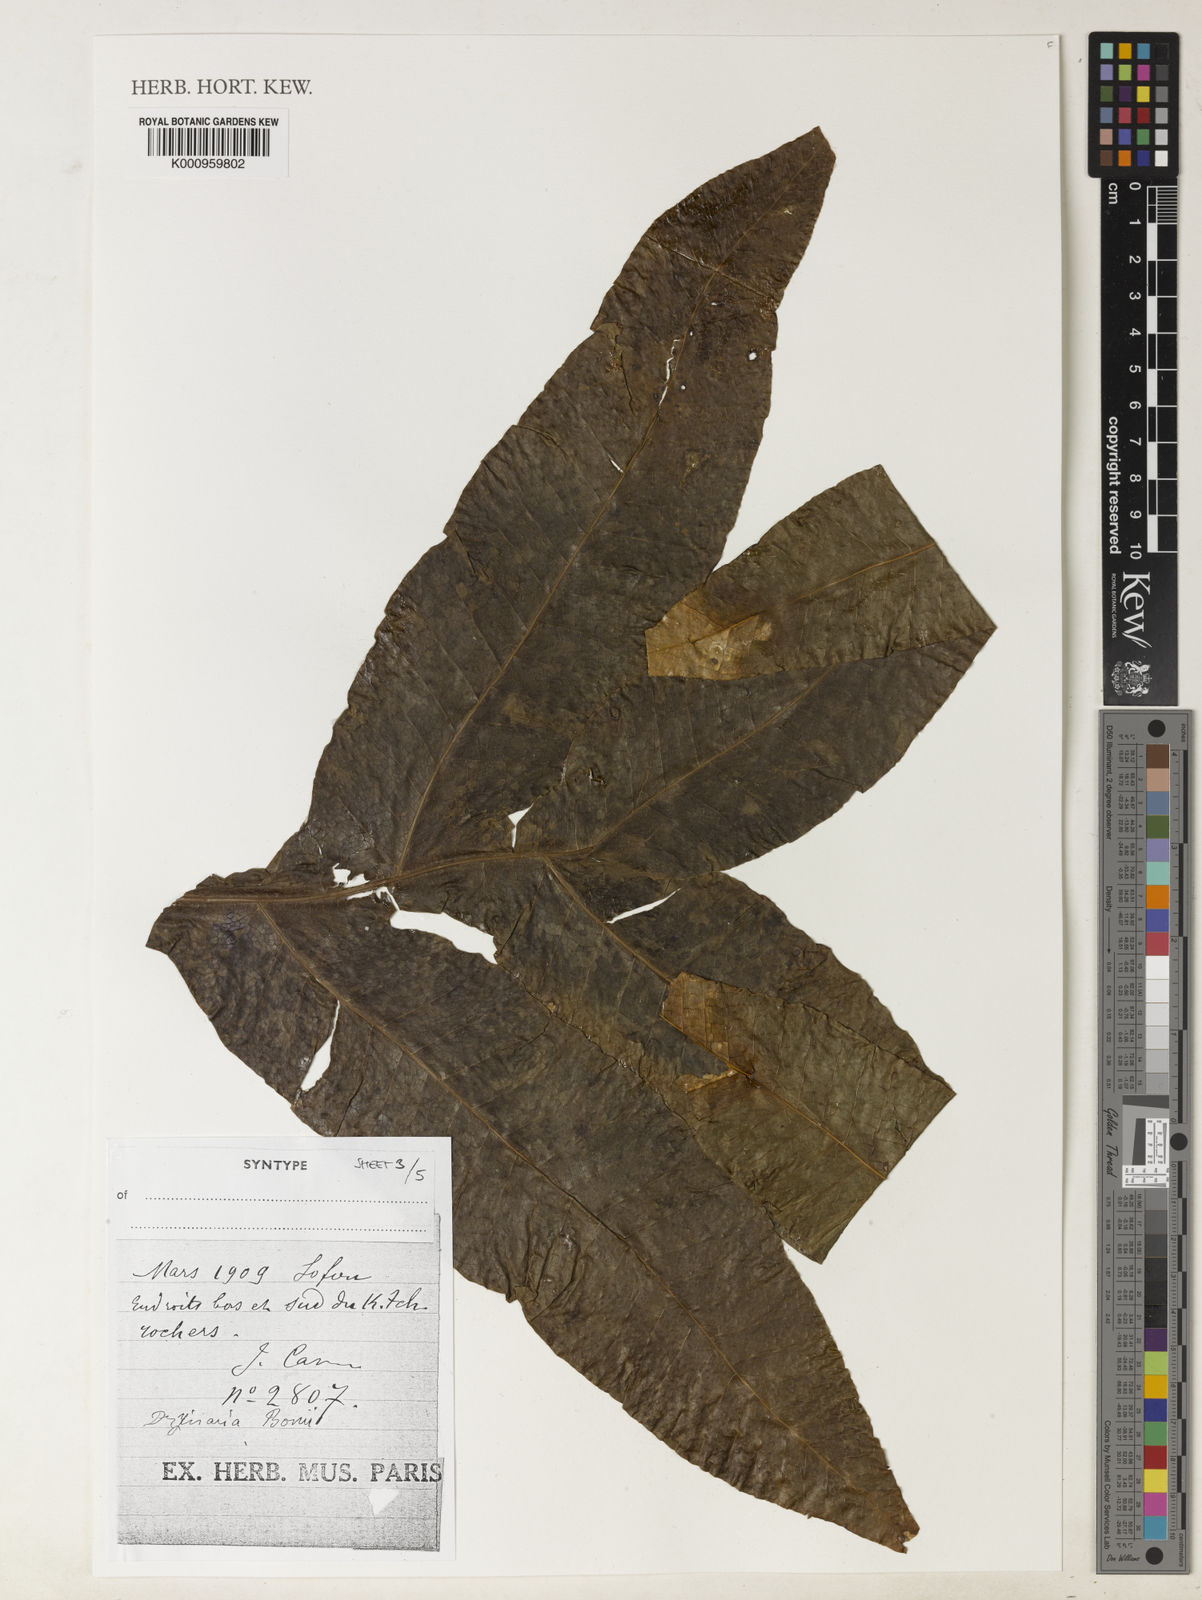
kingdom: Plantae
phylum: Tracheophyta
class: Polypodiopsida
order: Polypodiales
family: Polypodiaceae
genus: Drynaria
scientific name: Drynaria bonii
